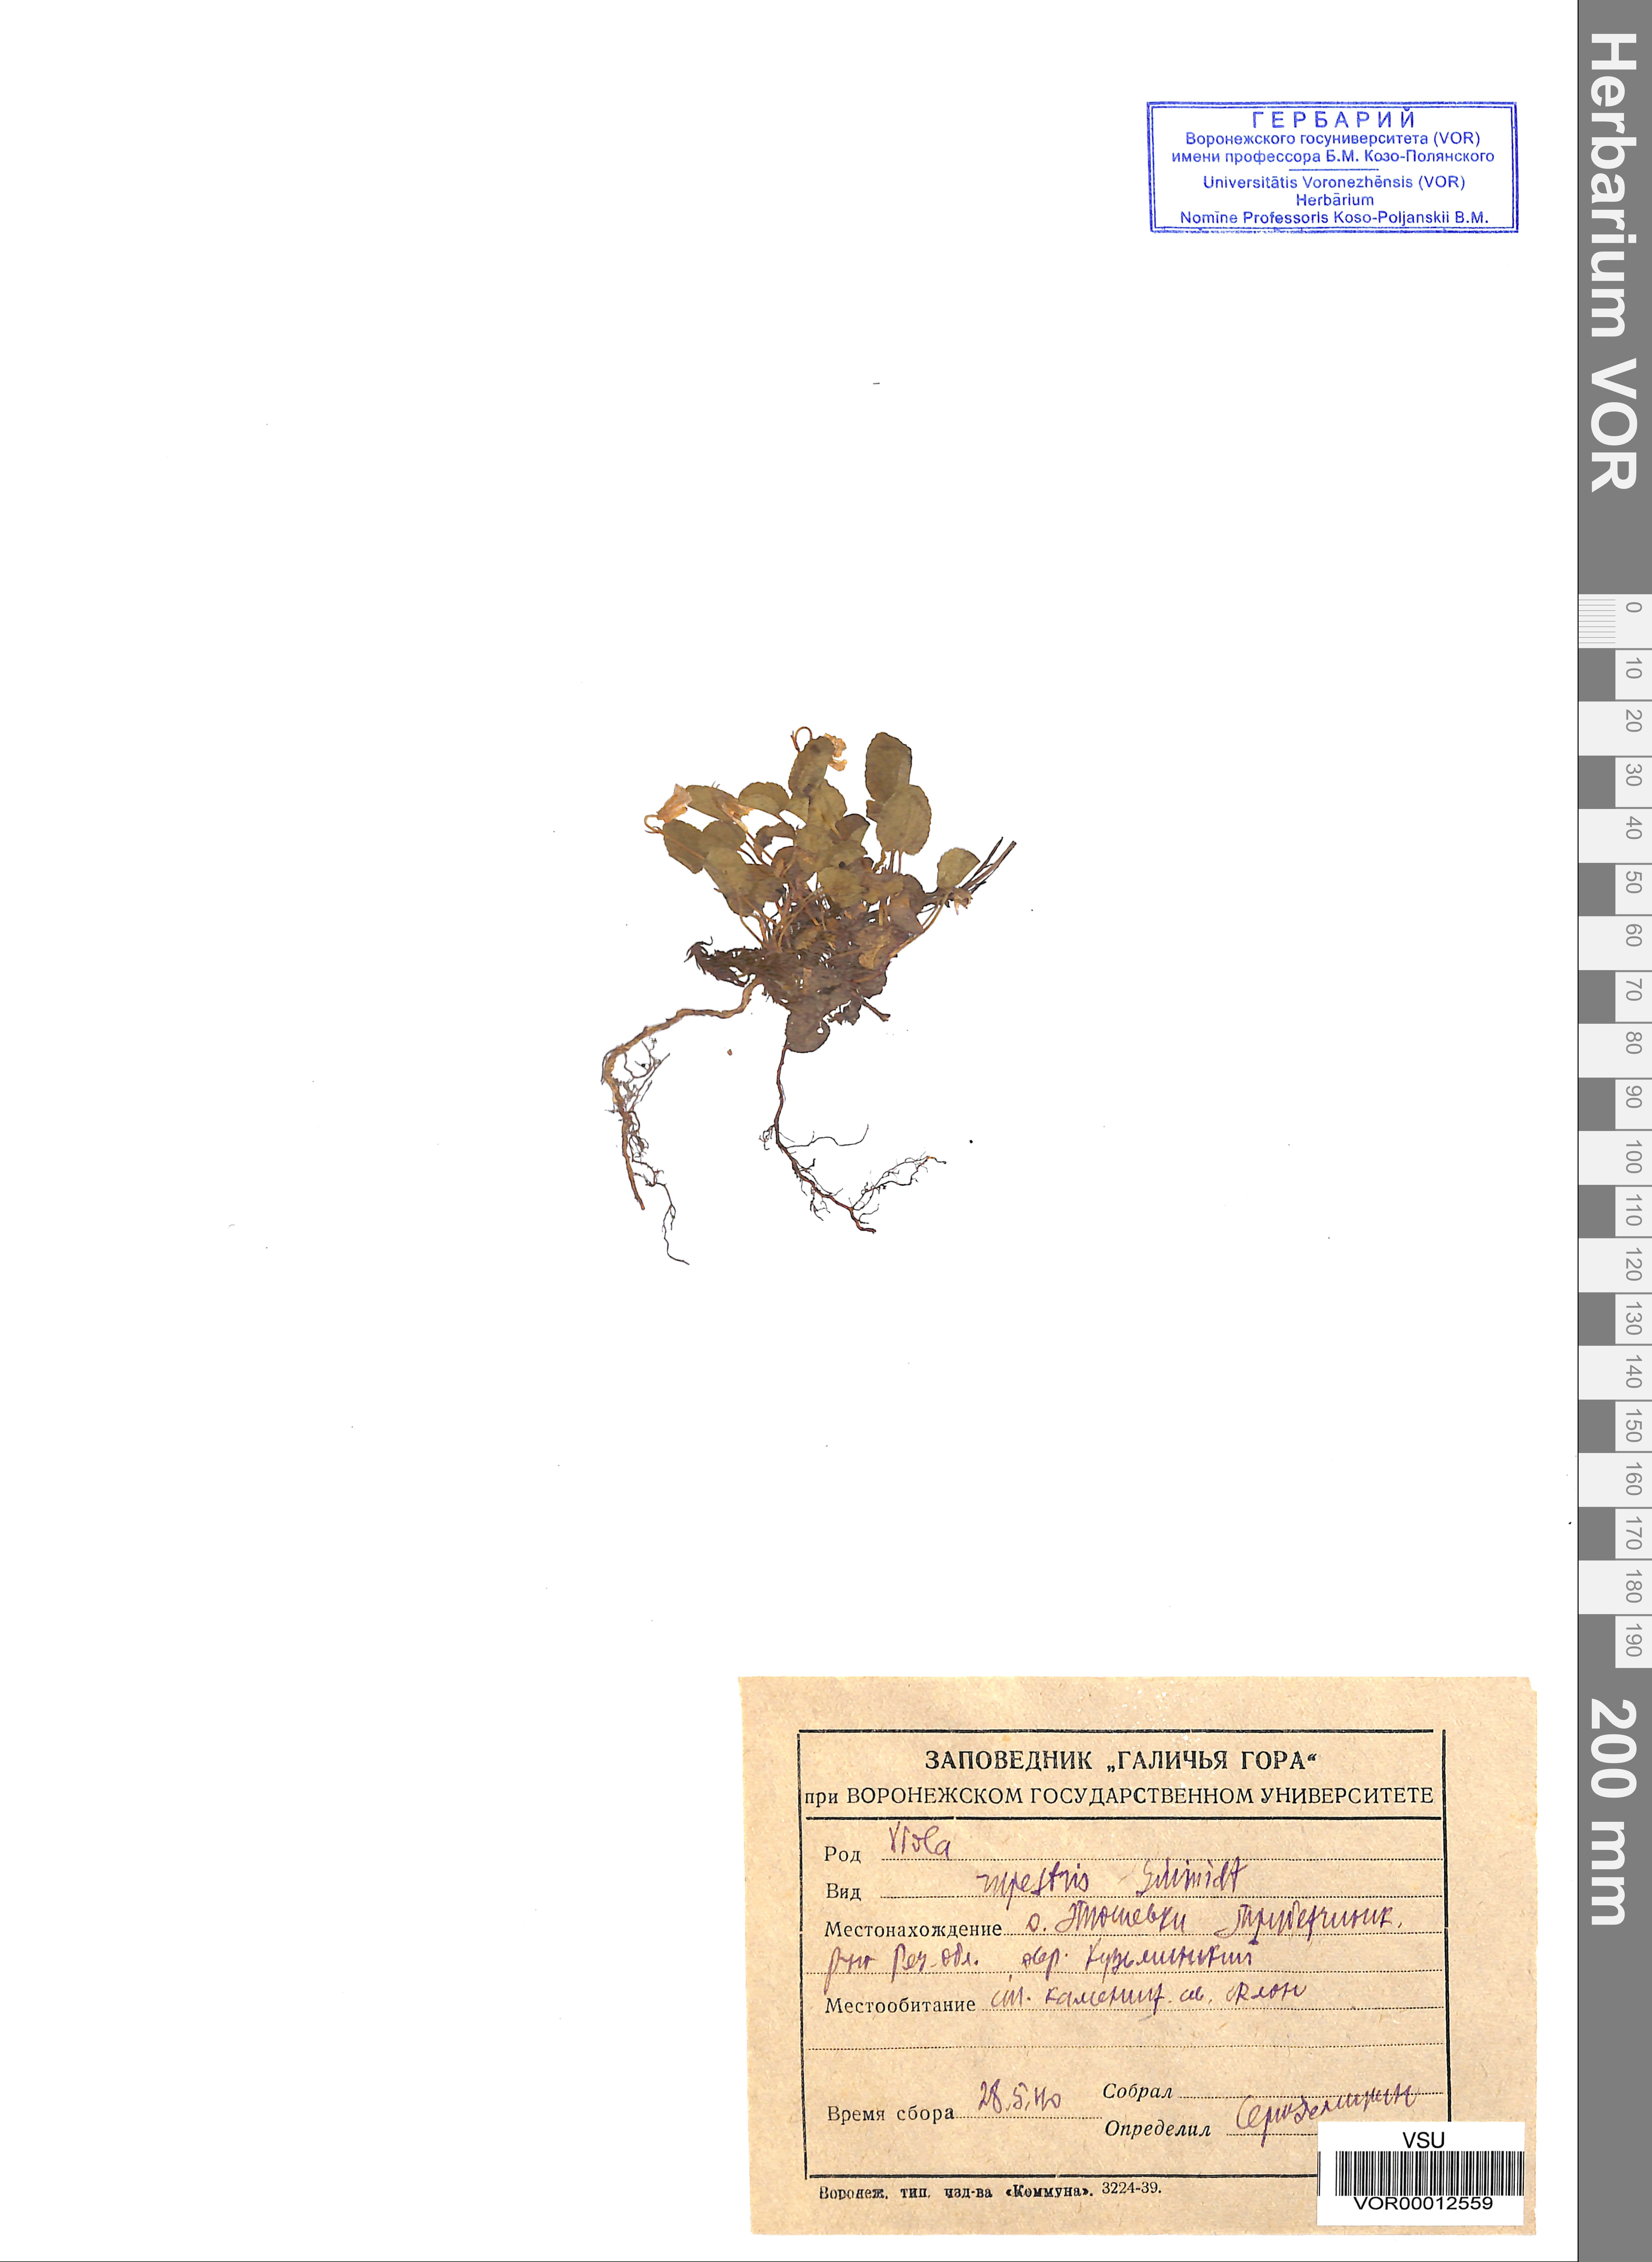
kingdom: Plantae
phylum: Tracheophyta
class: Magnoliopsida
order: Malpighiales
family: Violaceae
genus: Viola
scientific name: Viola rupestris
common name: Teesdale violet
